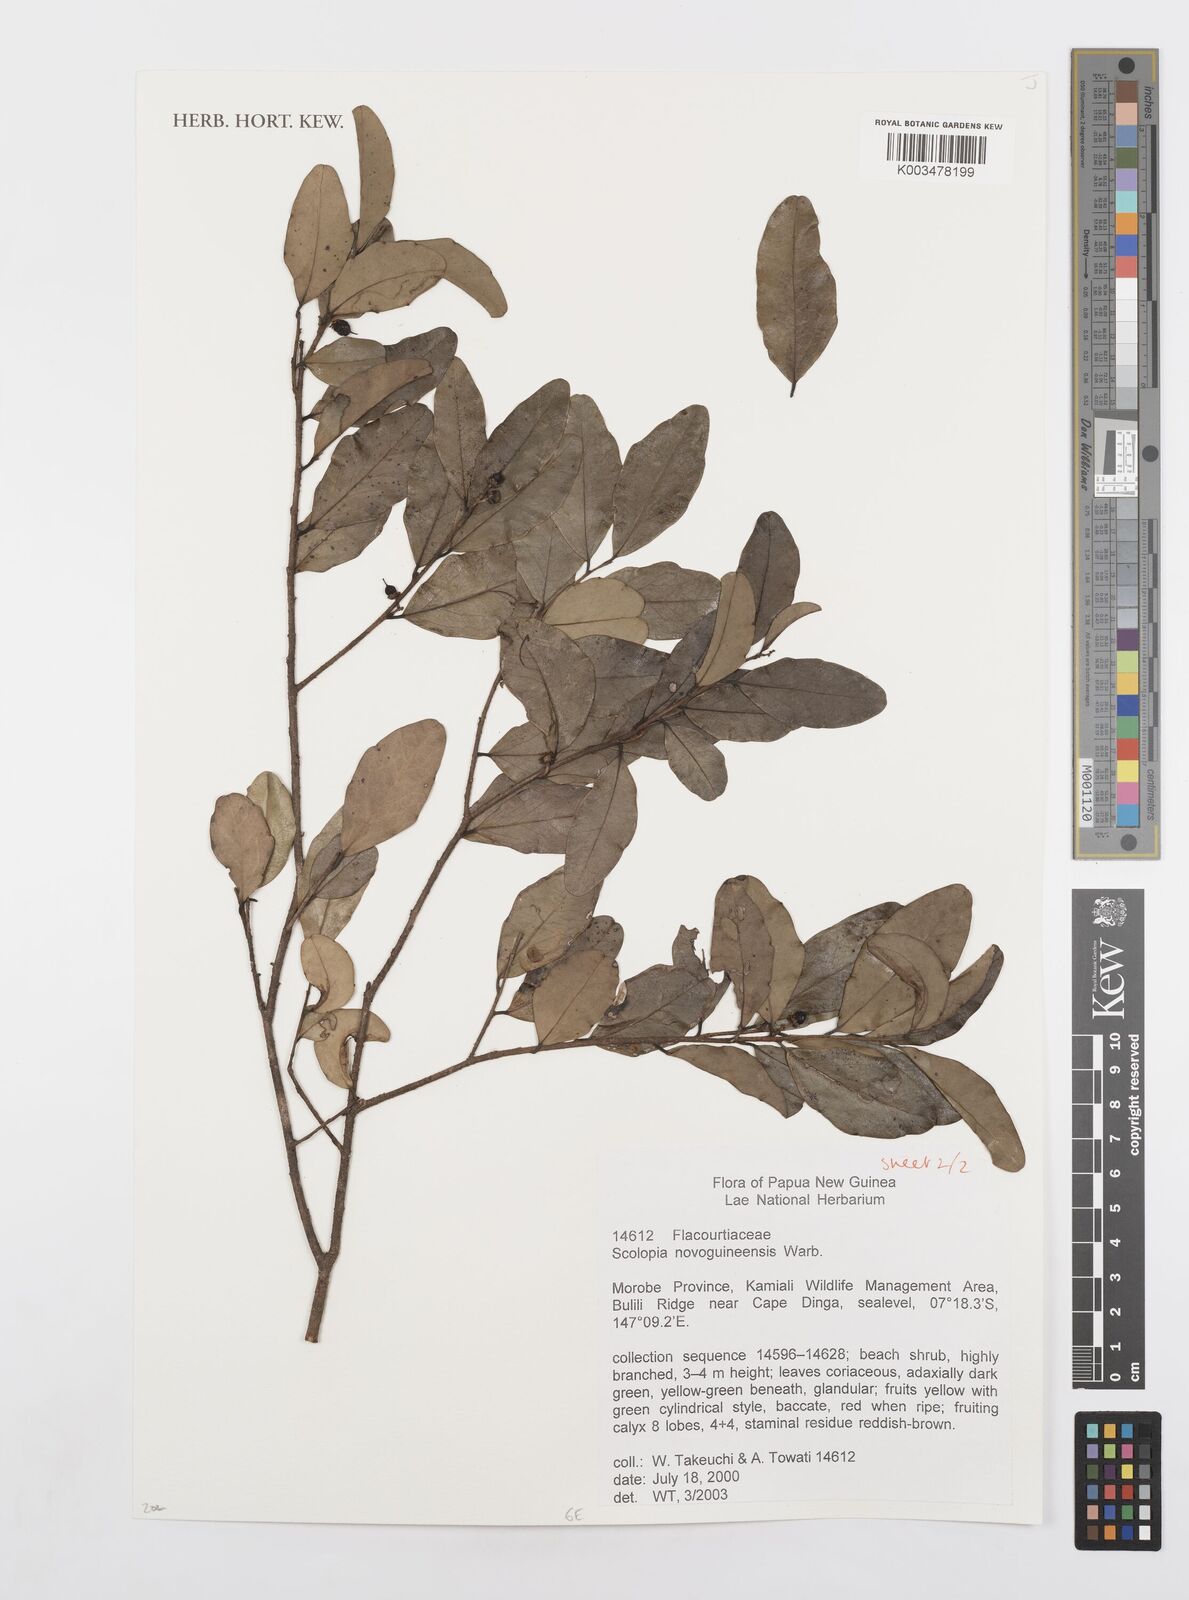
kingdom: Plantae
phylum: Tracheophyta
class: Magnoliopsida
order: Malpighiales
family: Salicaceae
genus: Scolopia
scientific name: Scolopia novoguineensis
